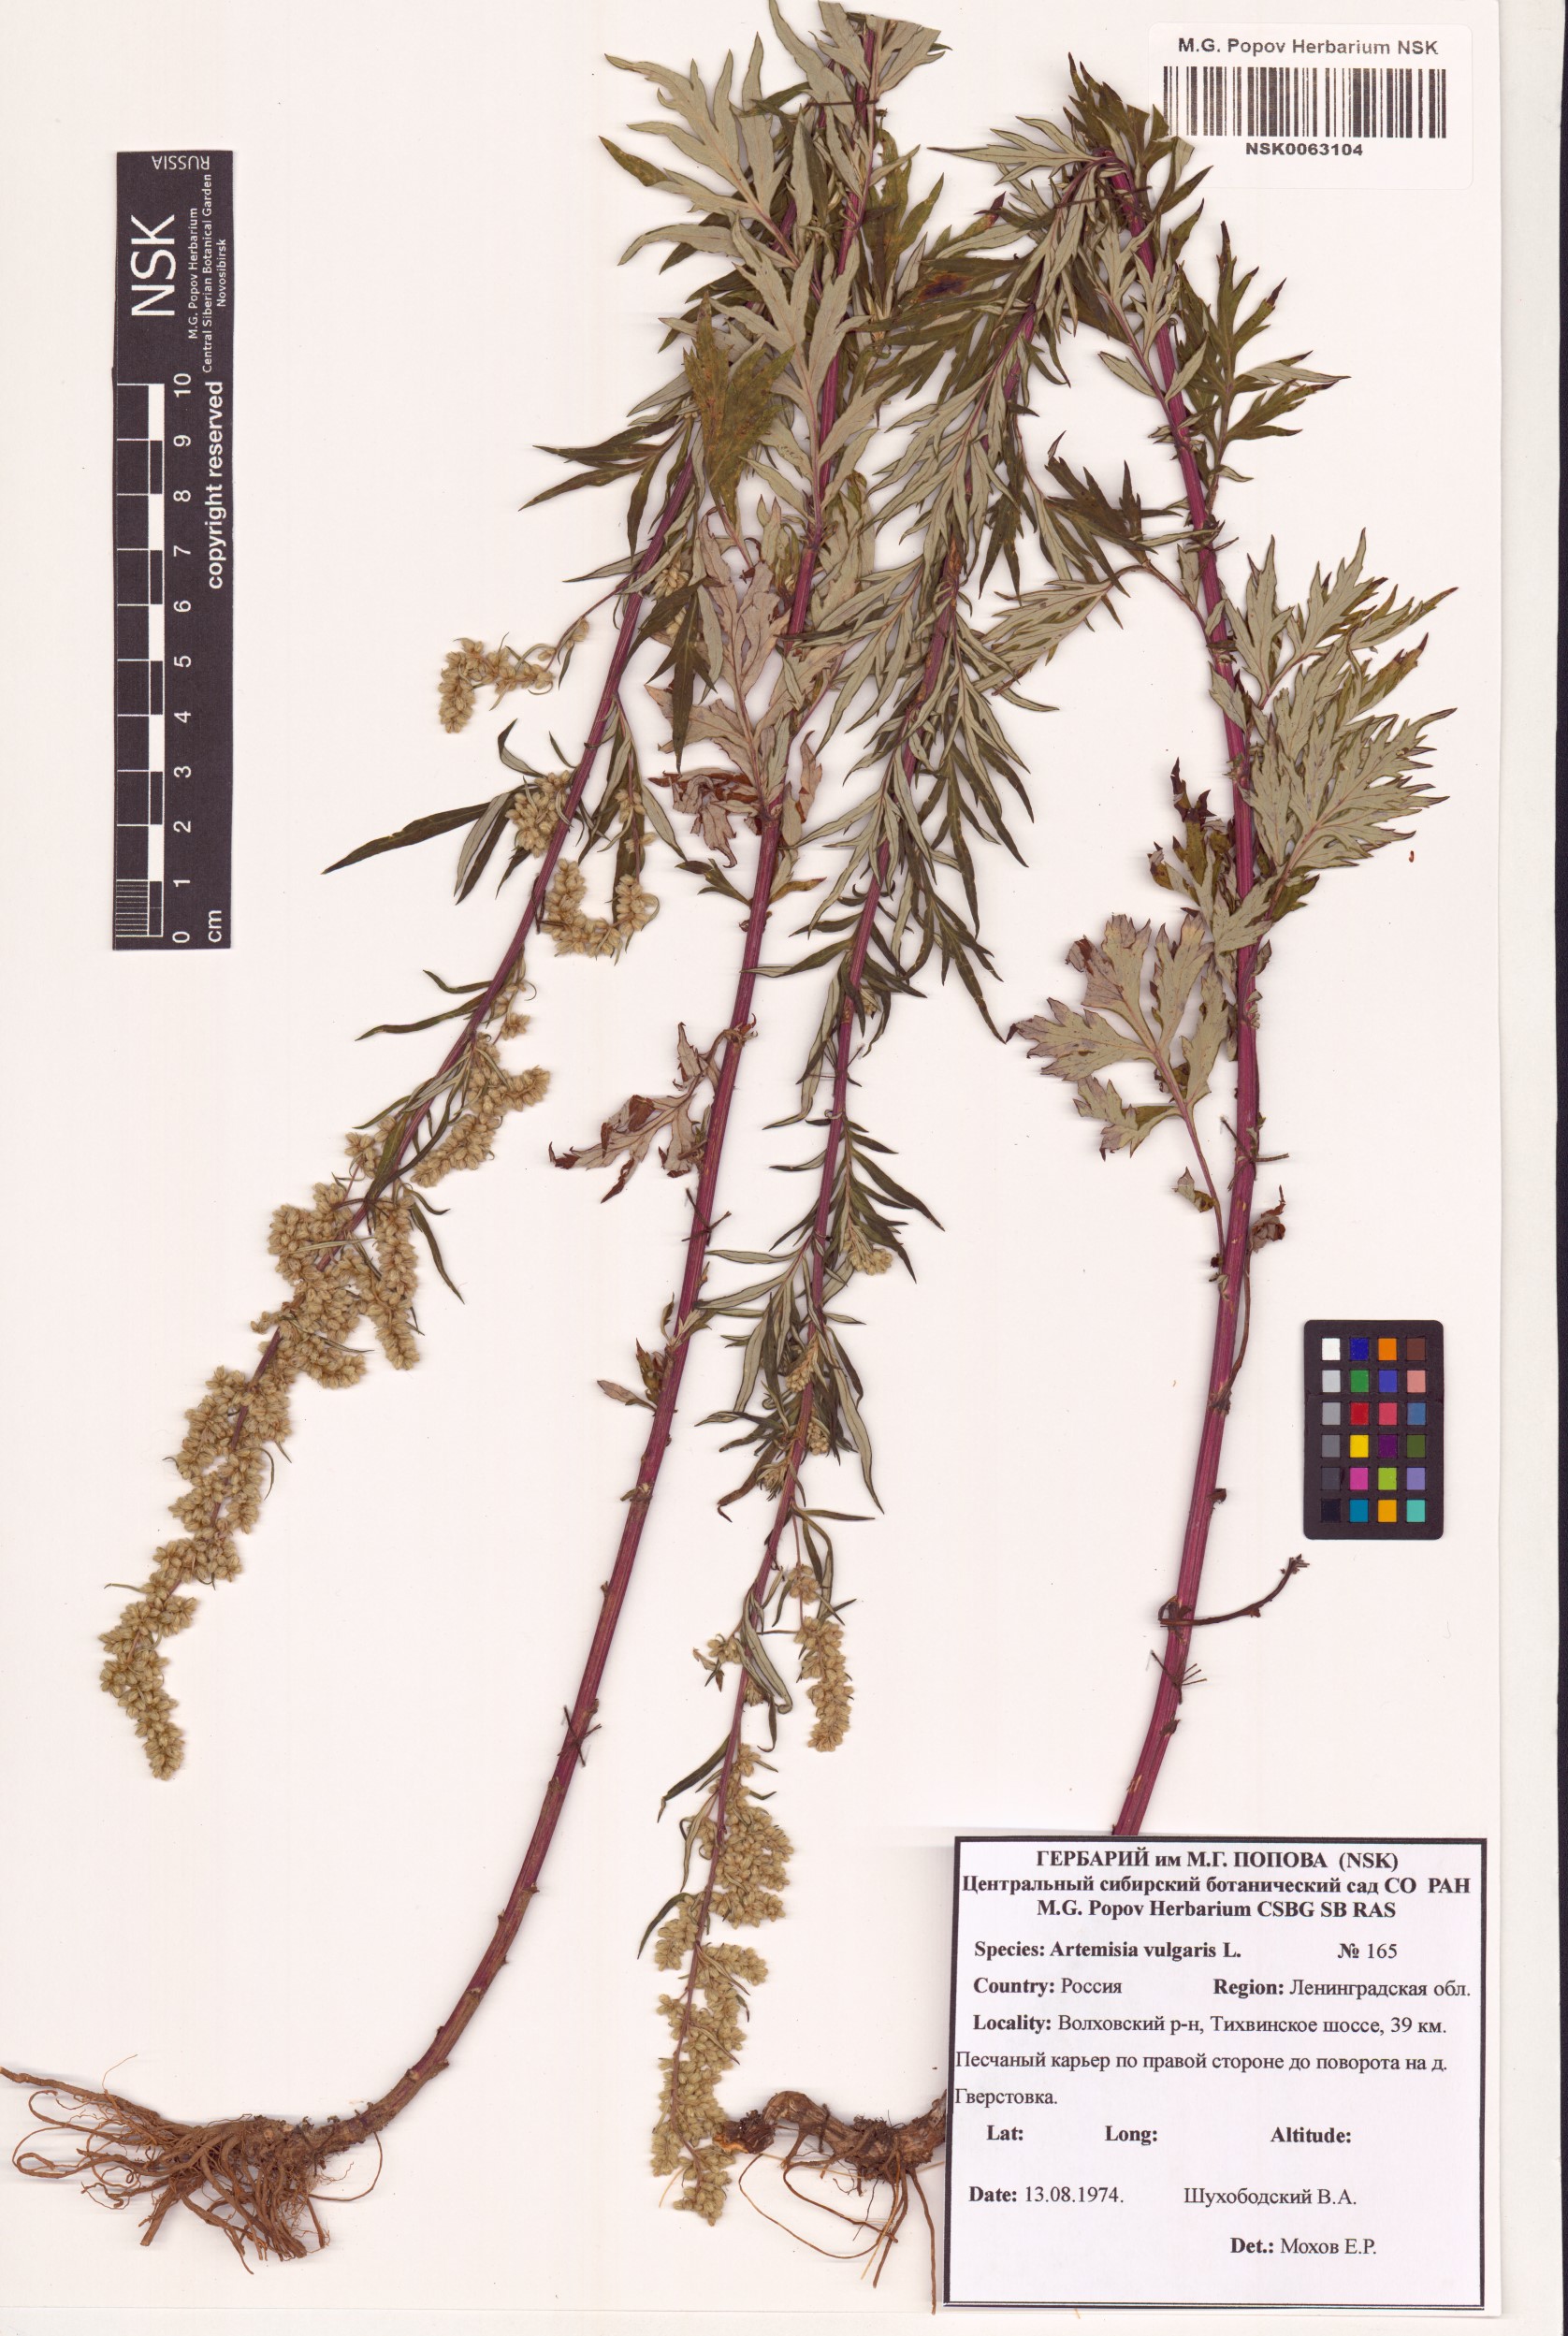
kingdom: Plantae
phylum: Tracheophyta
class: Magnoliopsida
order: Asterales
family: Asteraceae
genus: Artemisia
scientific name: Artemisia vulgaris
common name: Mugwort
